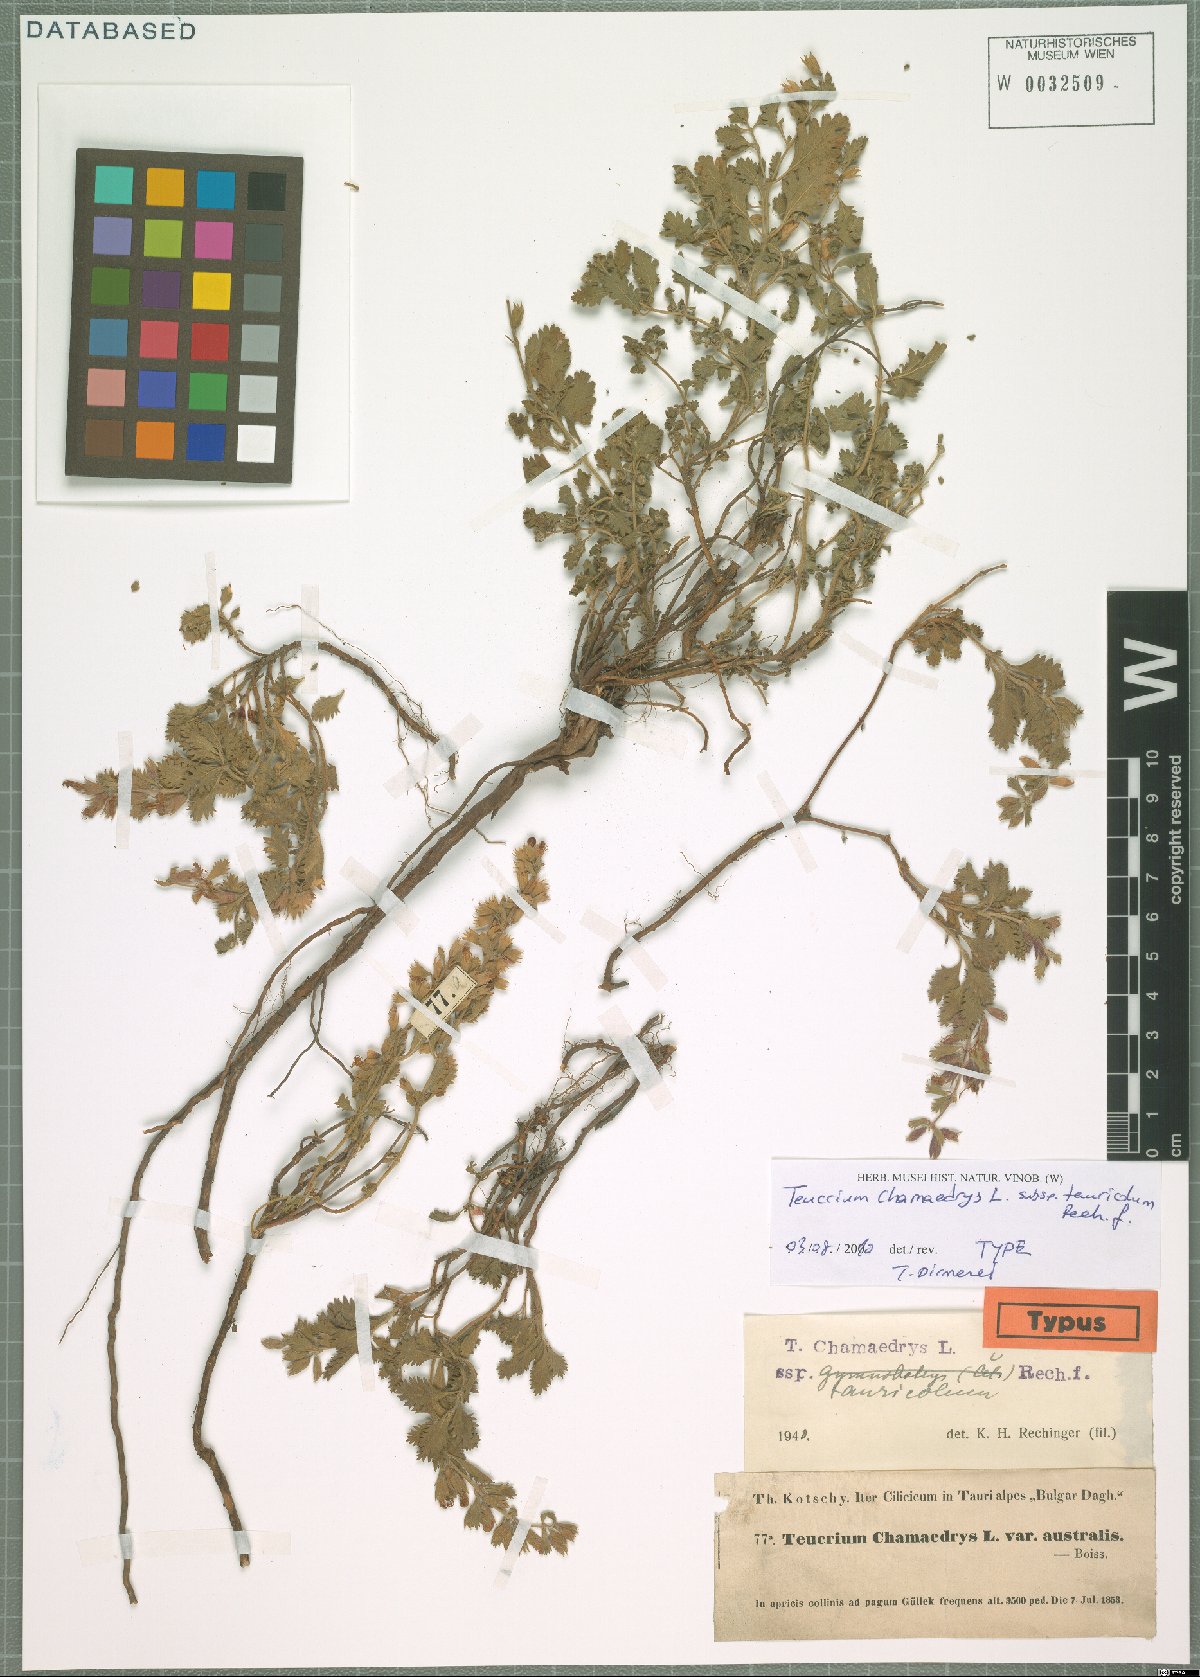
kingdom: Plantae
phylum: Tracheophyta
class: Magnoliopsida
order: Lamiales
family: Lamiaceae
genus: Teucrium
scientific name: Teucrium chamaedrys
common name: Wall germander
